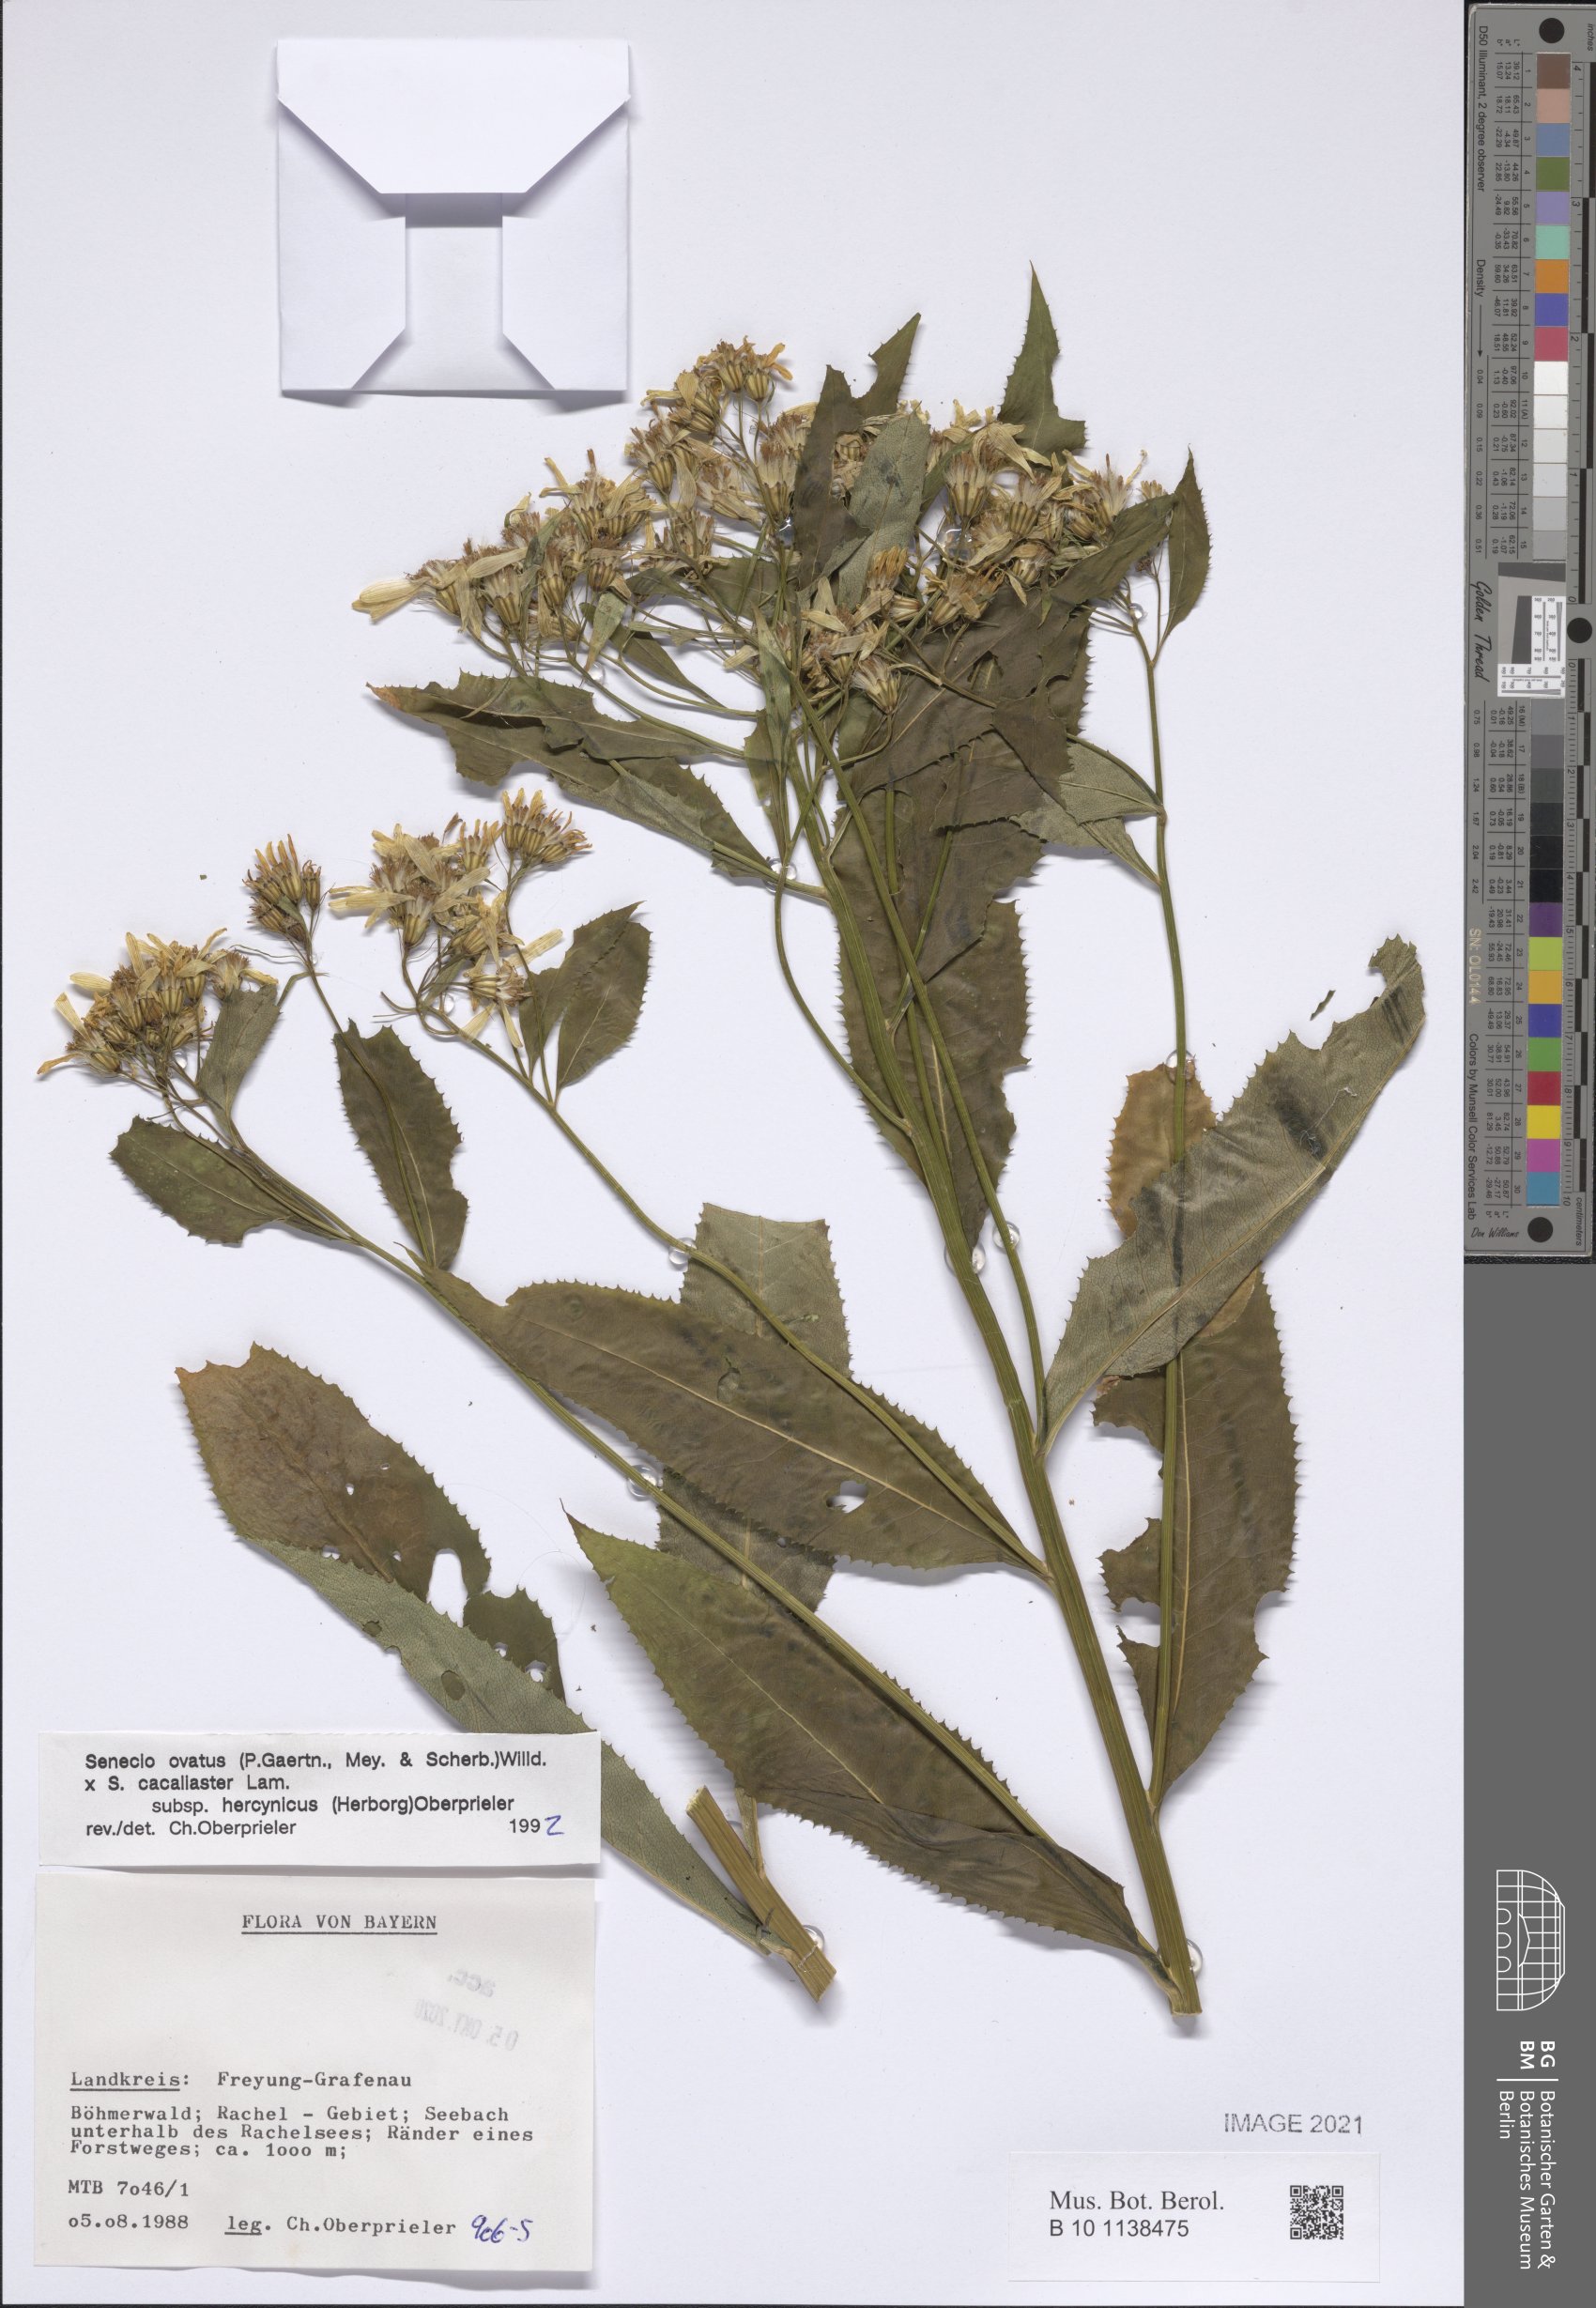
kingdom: Plantae
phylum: Tracheophyta
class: Magnoliopsida
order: Asterales
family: Asteraceae
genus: Senecio
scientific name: Senecio ovatus
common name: Wood ragwort
